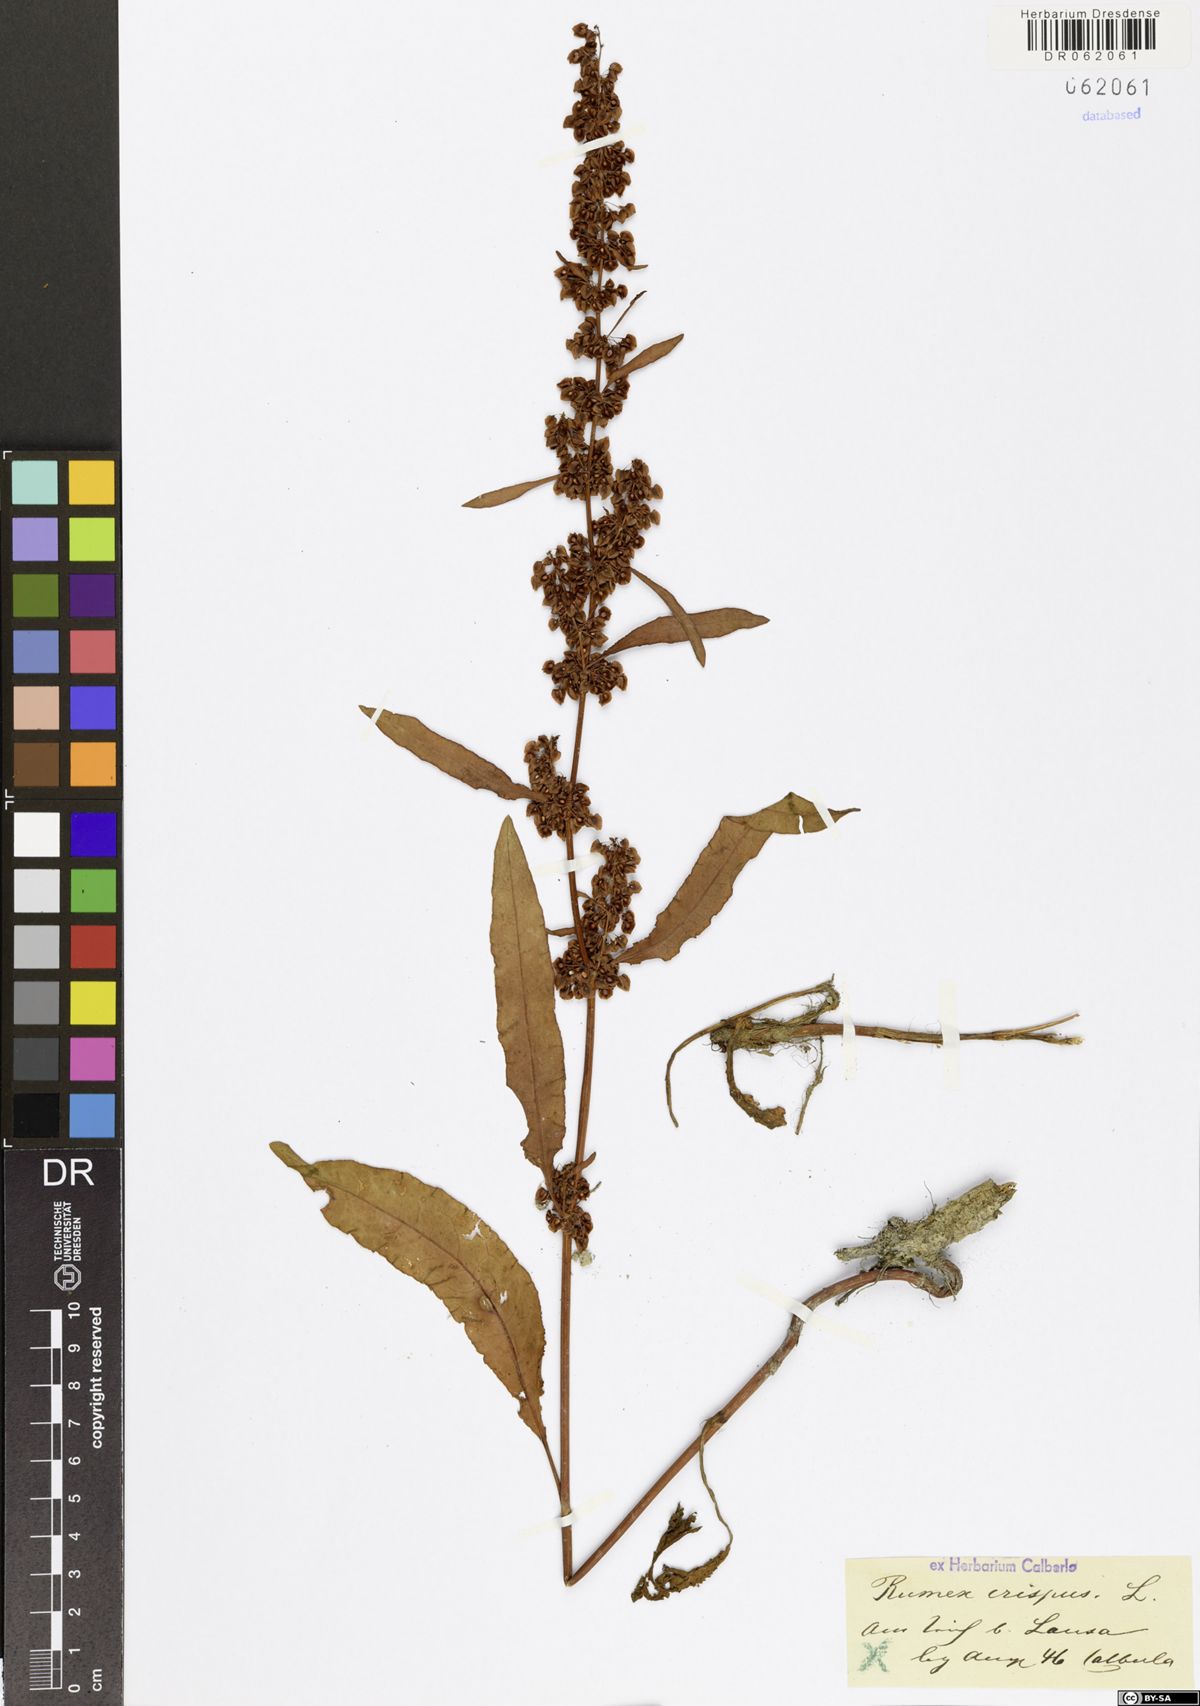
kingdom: Plantae
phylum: Tracheophyta
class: Magnoliopsida
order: Caryophyllales
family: Polygonaceae
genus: Rumex
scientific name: Rumex crispus
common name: Curled dock
